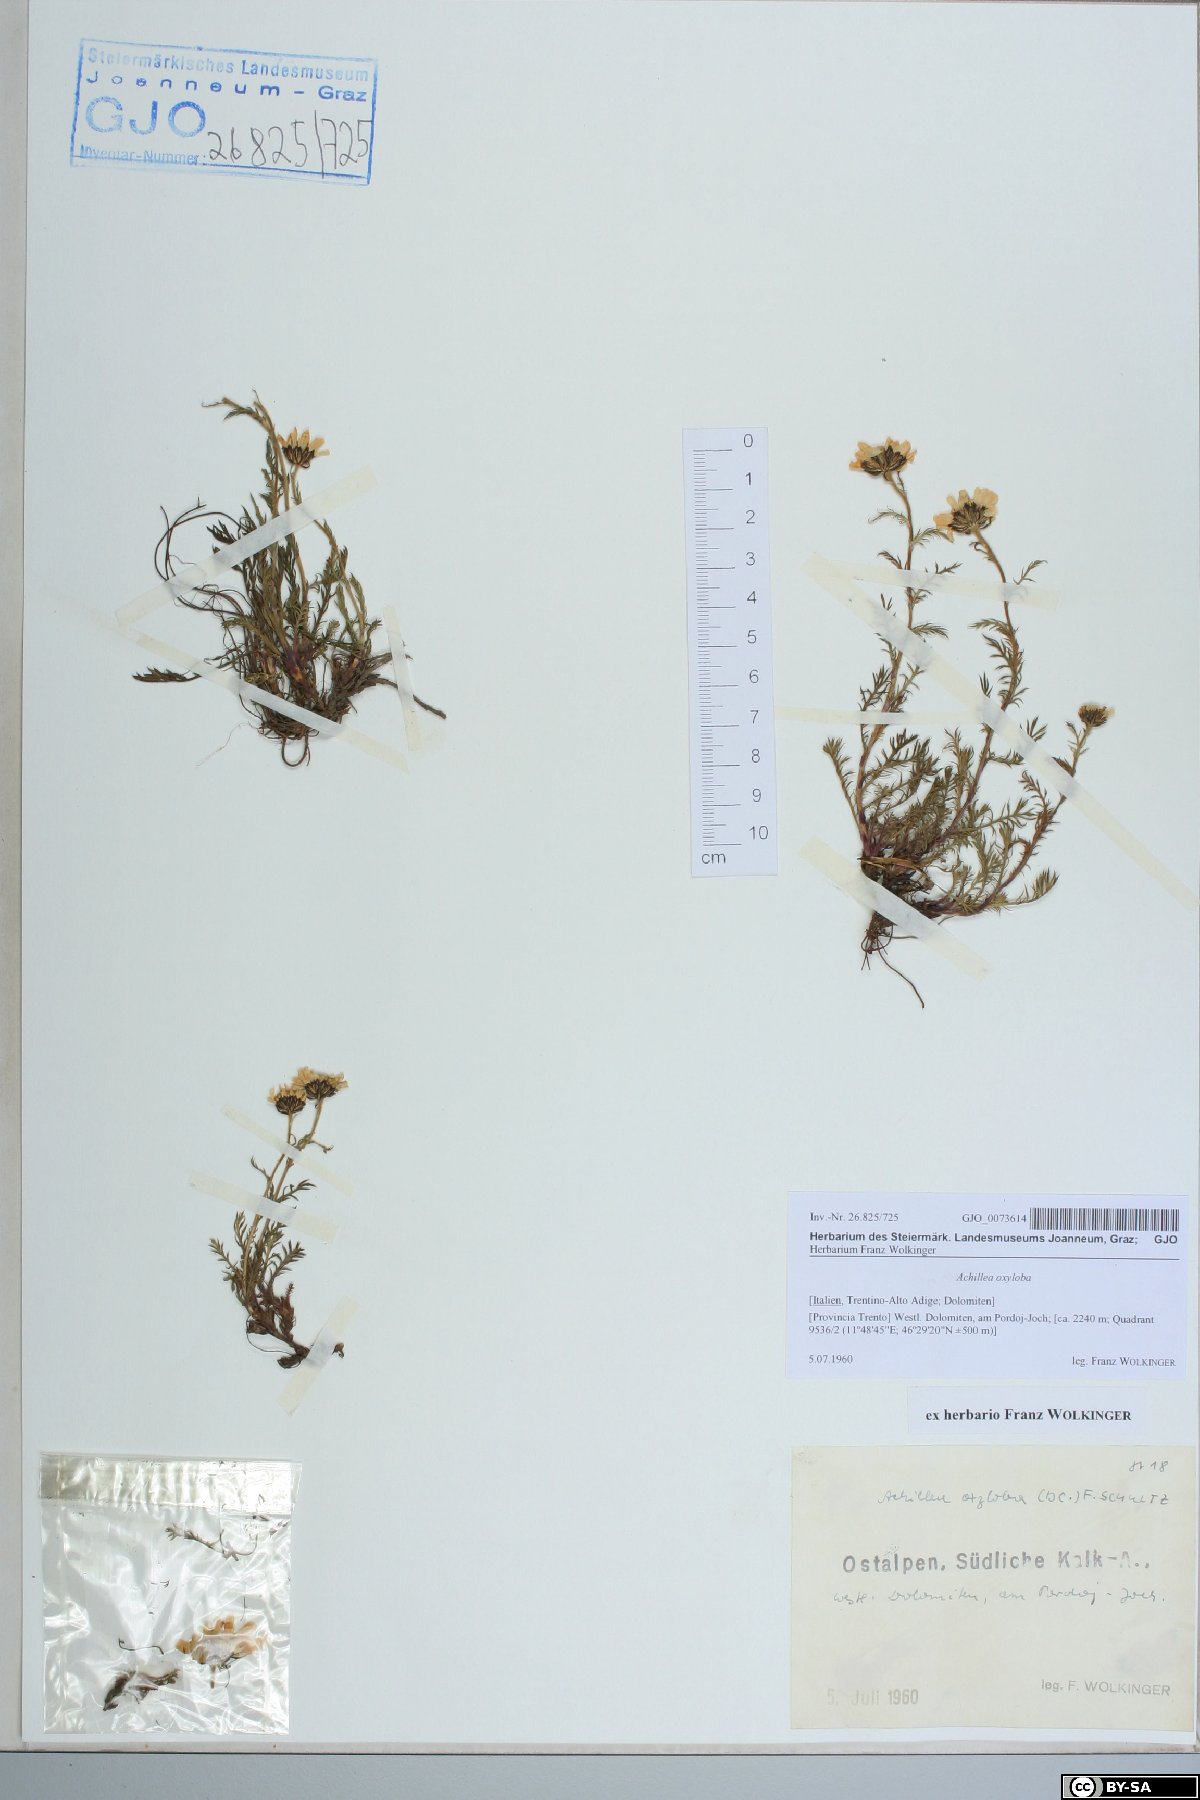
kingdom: Plantae
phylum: Tracheophyta
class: Magnoliopsida
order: Asterales
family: Asteraceae
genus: Achillea
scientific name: Achillea oxyloba
